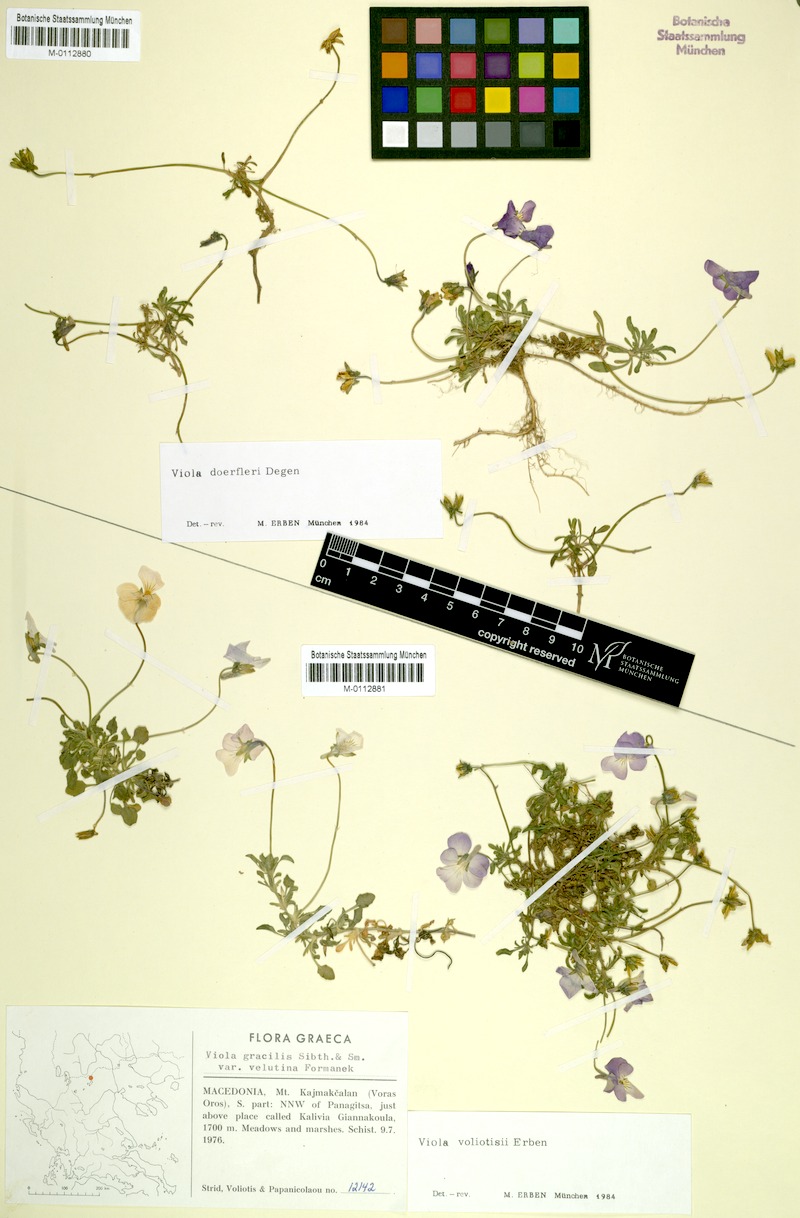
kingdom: Plantae
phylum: Tracheophyta
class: Magnoliopsida
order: Malpighiales
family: Violaceae
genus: Viola
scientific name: Viola doerfleri
